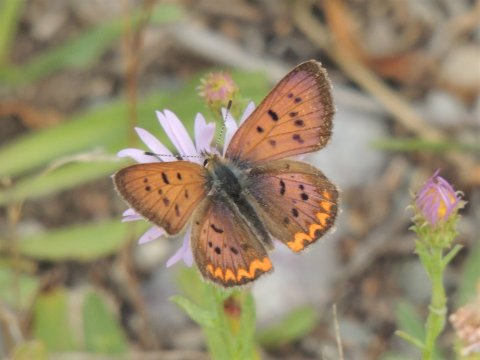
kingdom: Animalia
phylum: Arthropoda
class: Insecta
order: Lepidoptera
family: Sesiidae
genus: Sesia
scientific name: Sesia Lycaena helloides
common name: Purplish Copper
